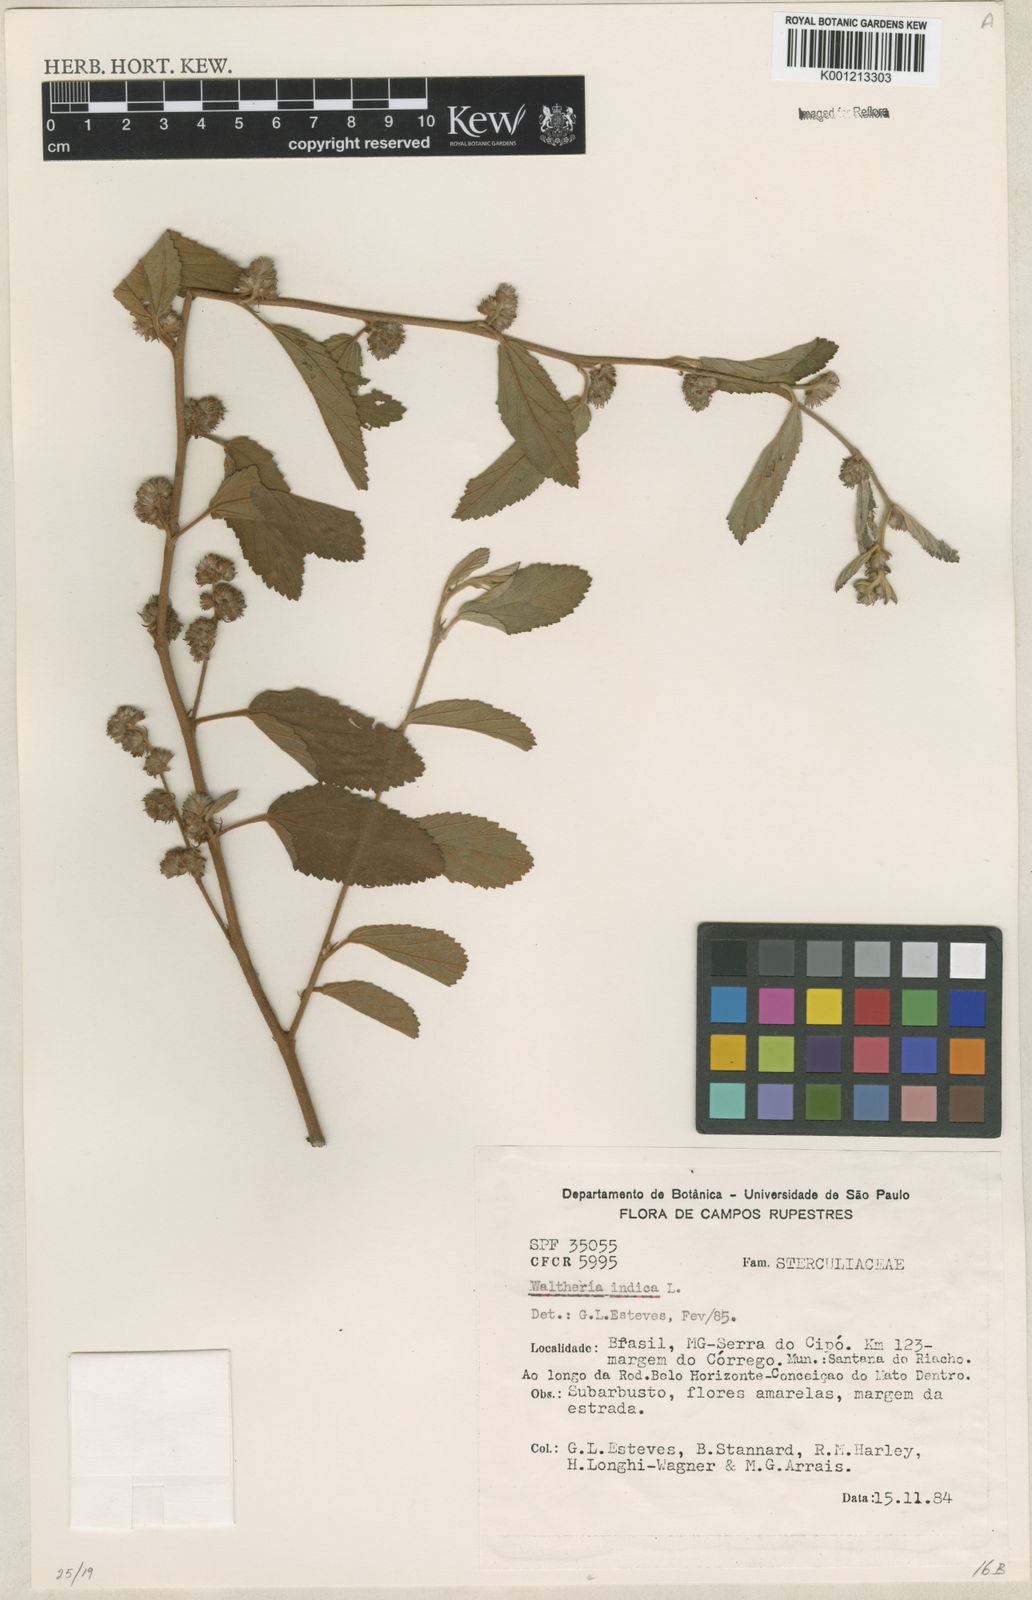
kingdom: Plantae
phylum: Tracheophyta
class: Magnoliopsida
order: Malvales
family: Malvaceae
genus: Waltheria
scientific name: Waltheria indica
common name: Leather-coat
